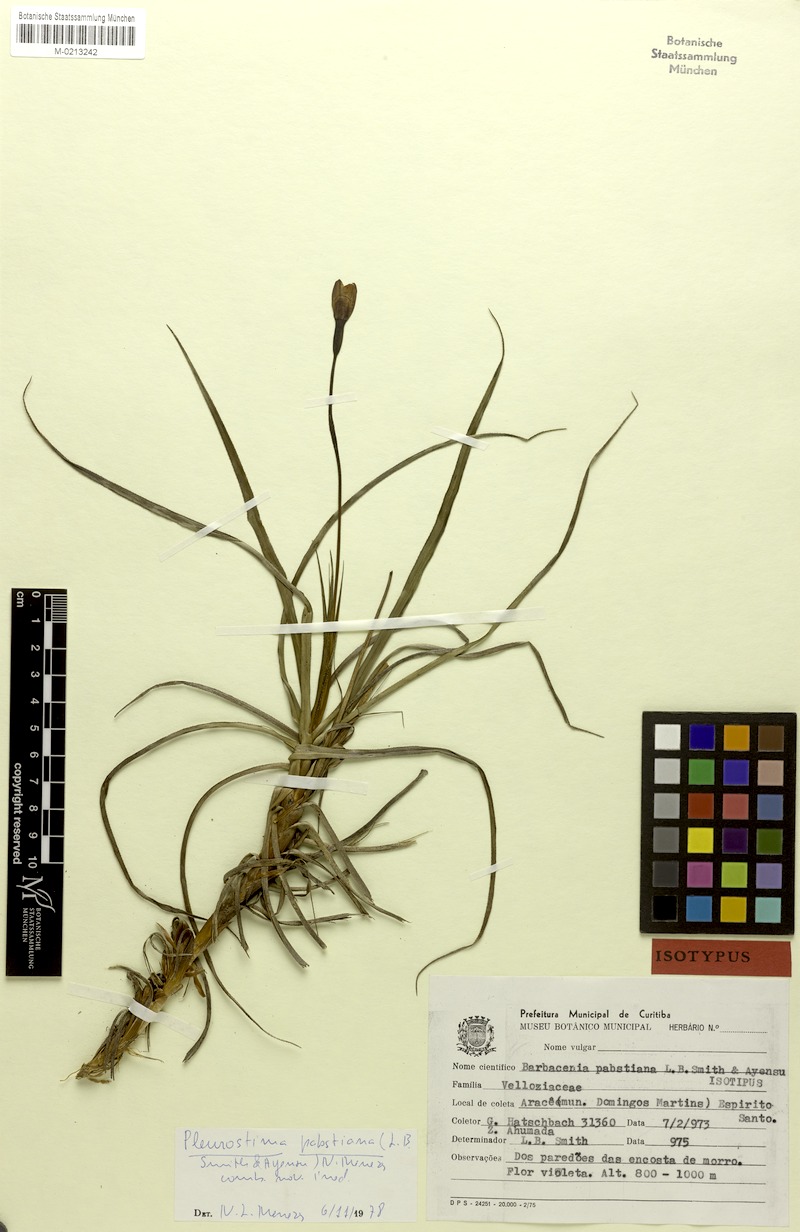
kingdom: Plantae
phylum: Tracheophyta
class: Liliopsida
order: Pandanales
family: Velloziaceae
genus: Barbacenia
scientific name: Barbacenia pabstiana
